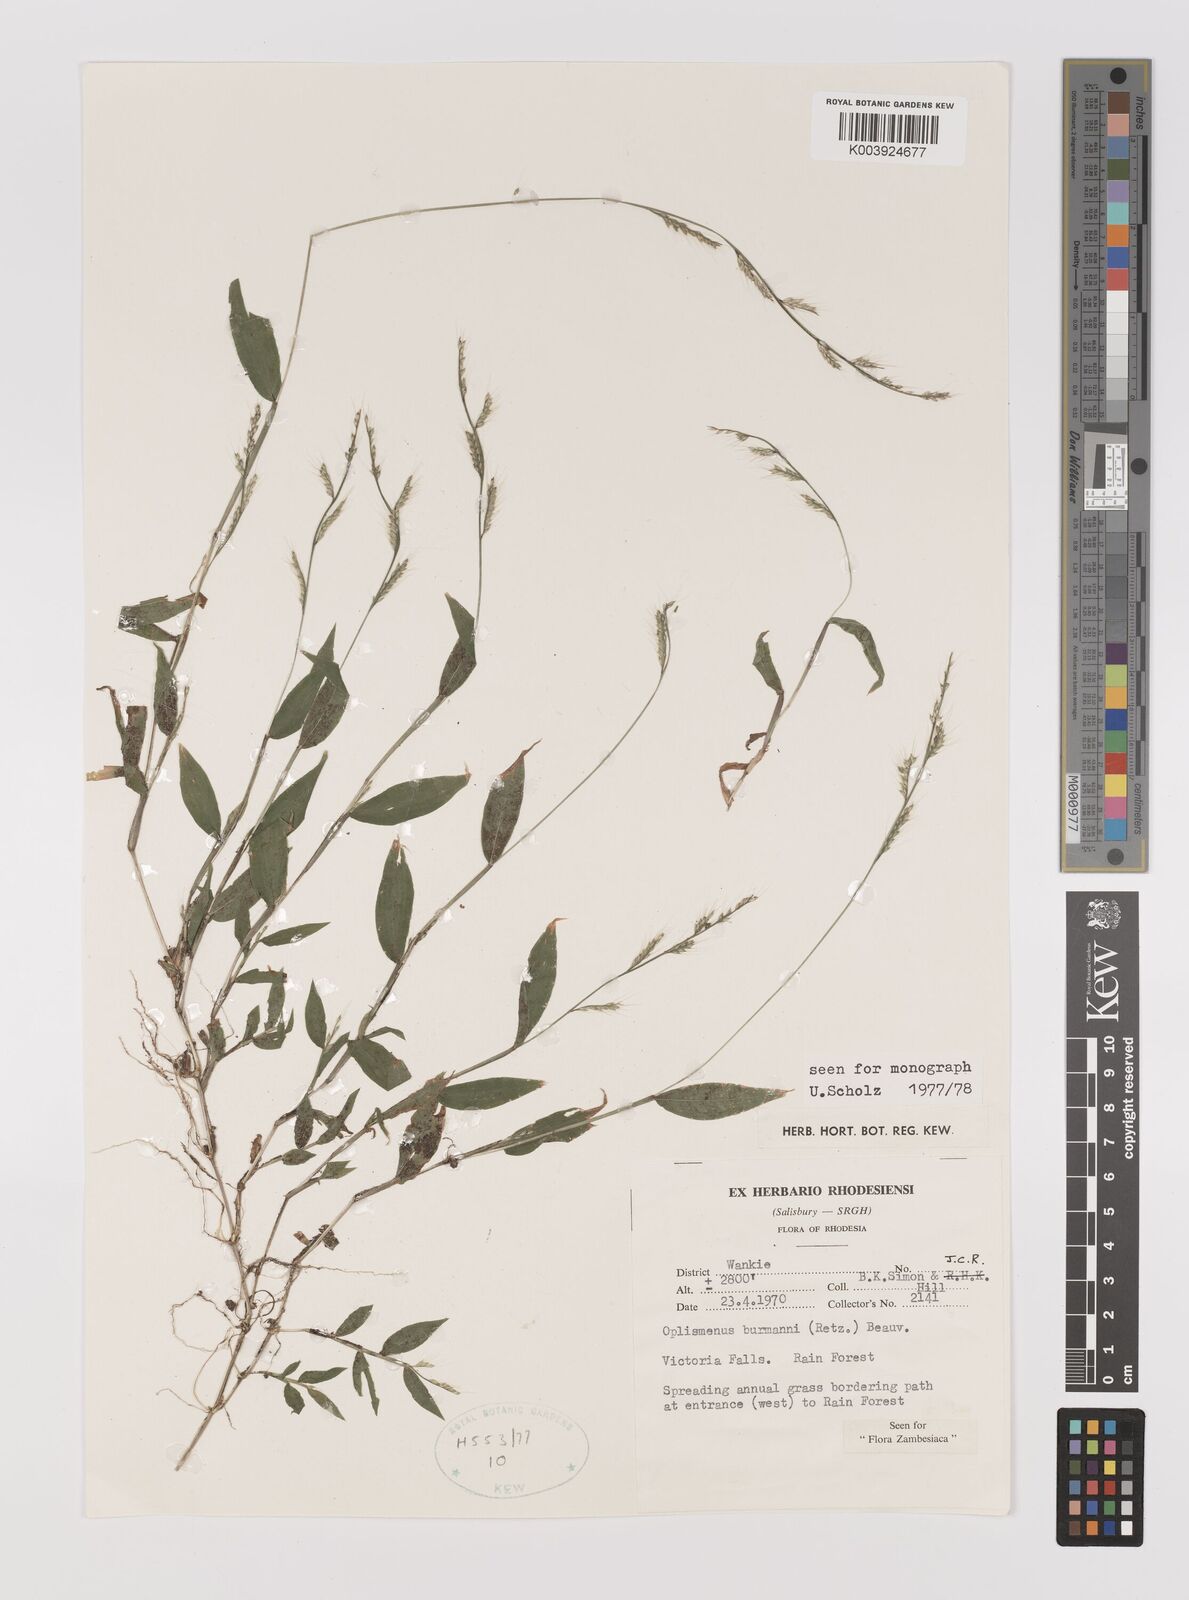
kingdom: Plantae
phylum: Tracheophyta
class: Liliopsida
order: Poales
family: Poaceae
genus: Oplismenus
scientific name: Oplismenus burmanni
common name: Burmann's basketgrass
